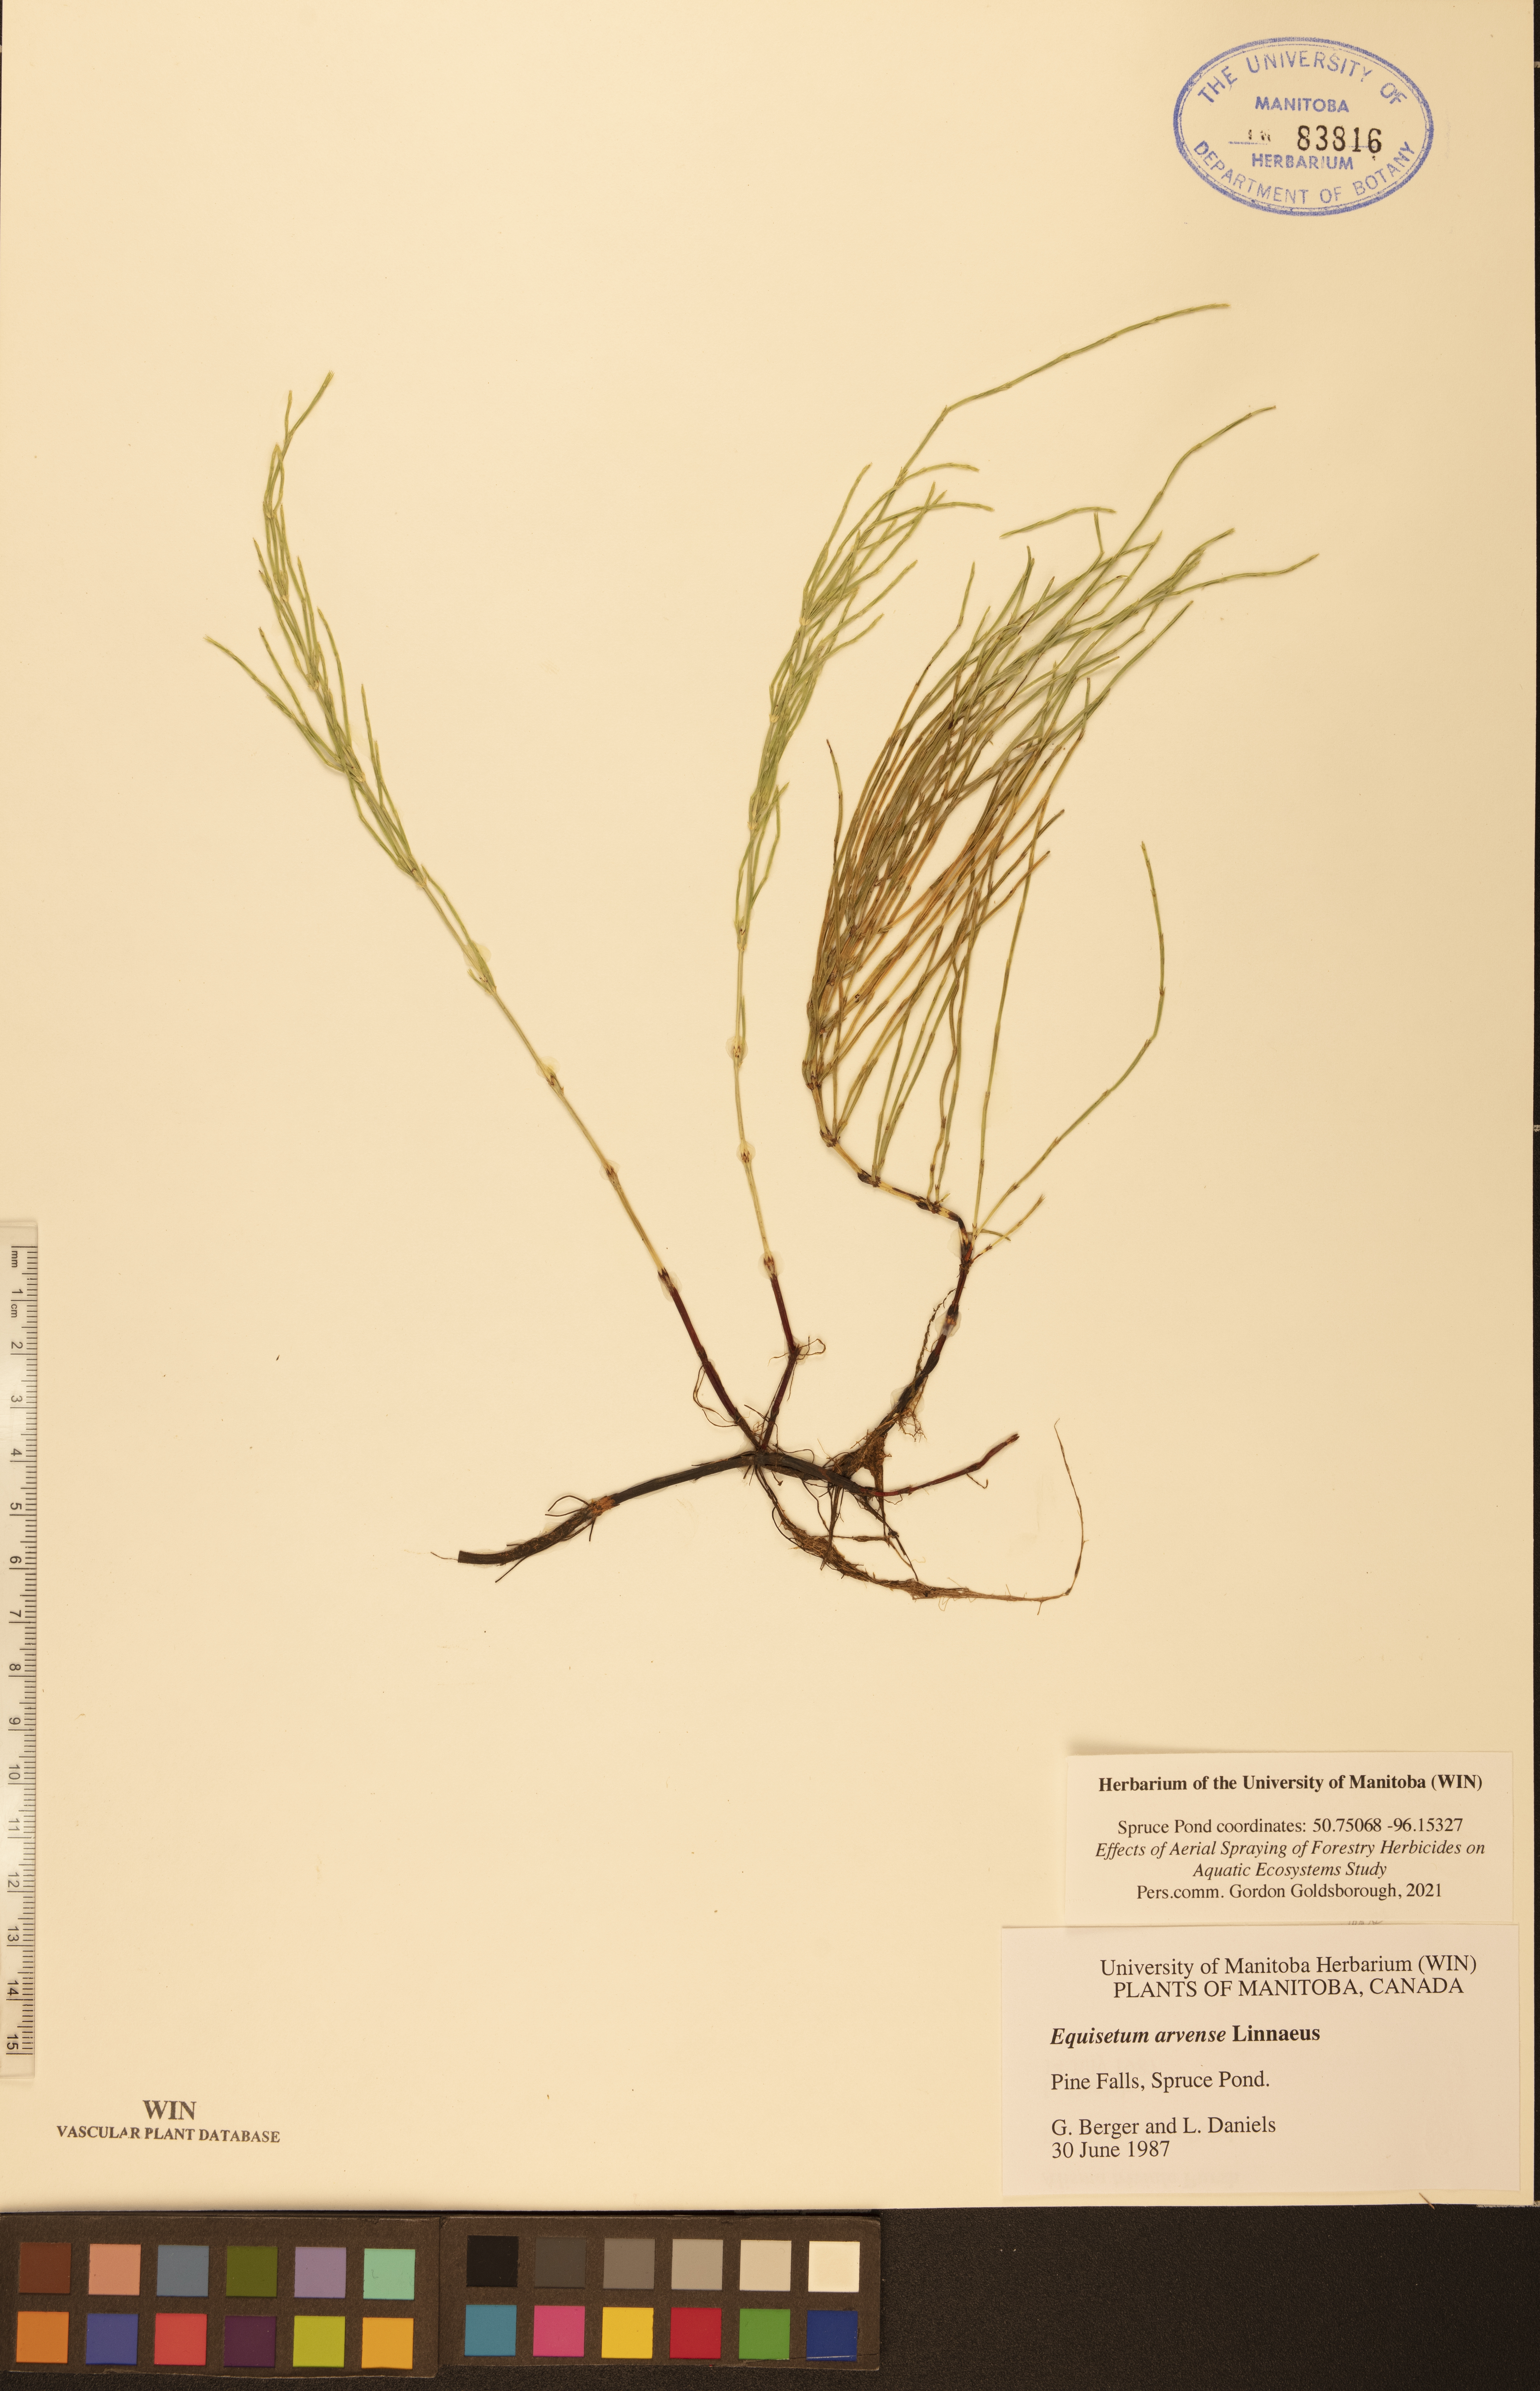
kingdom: Plantae
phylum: Tracheophyta
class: Polypodiopsida
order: Equisetales
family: Equisetaceae
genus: Equisetum
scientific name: Equisetum arvense
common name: Field horsetail
